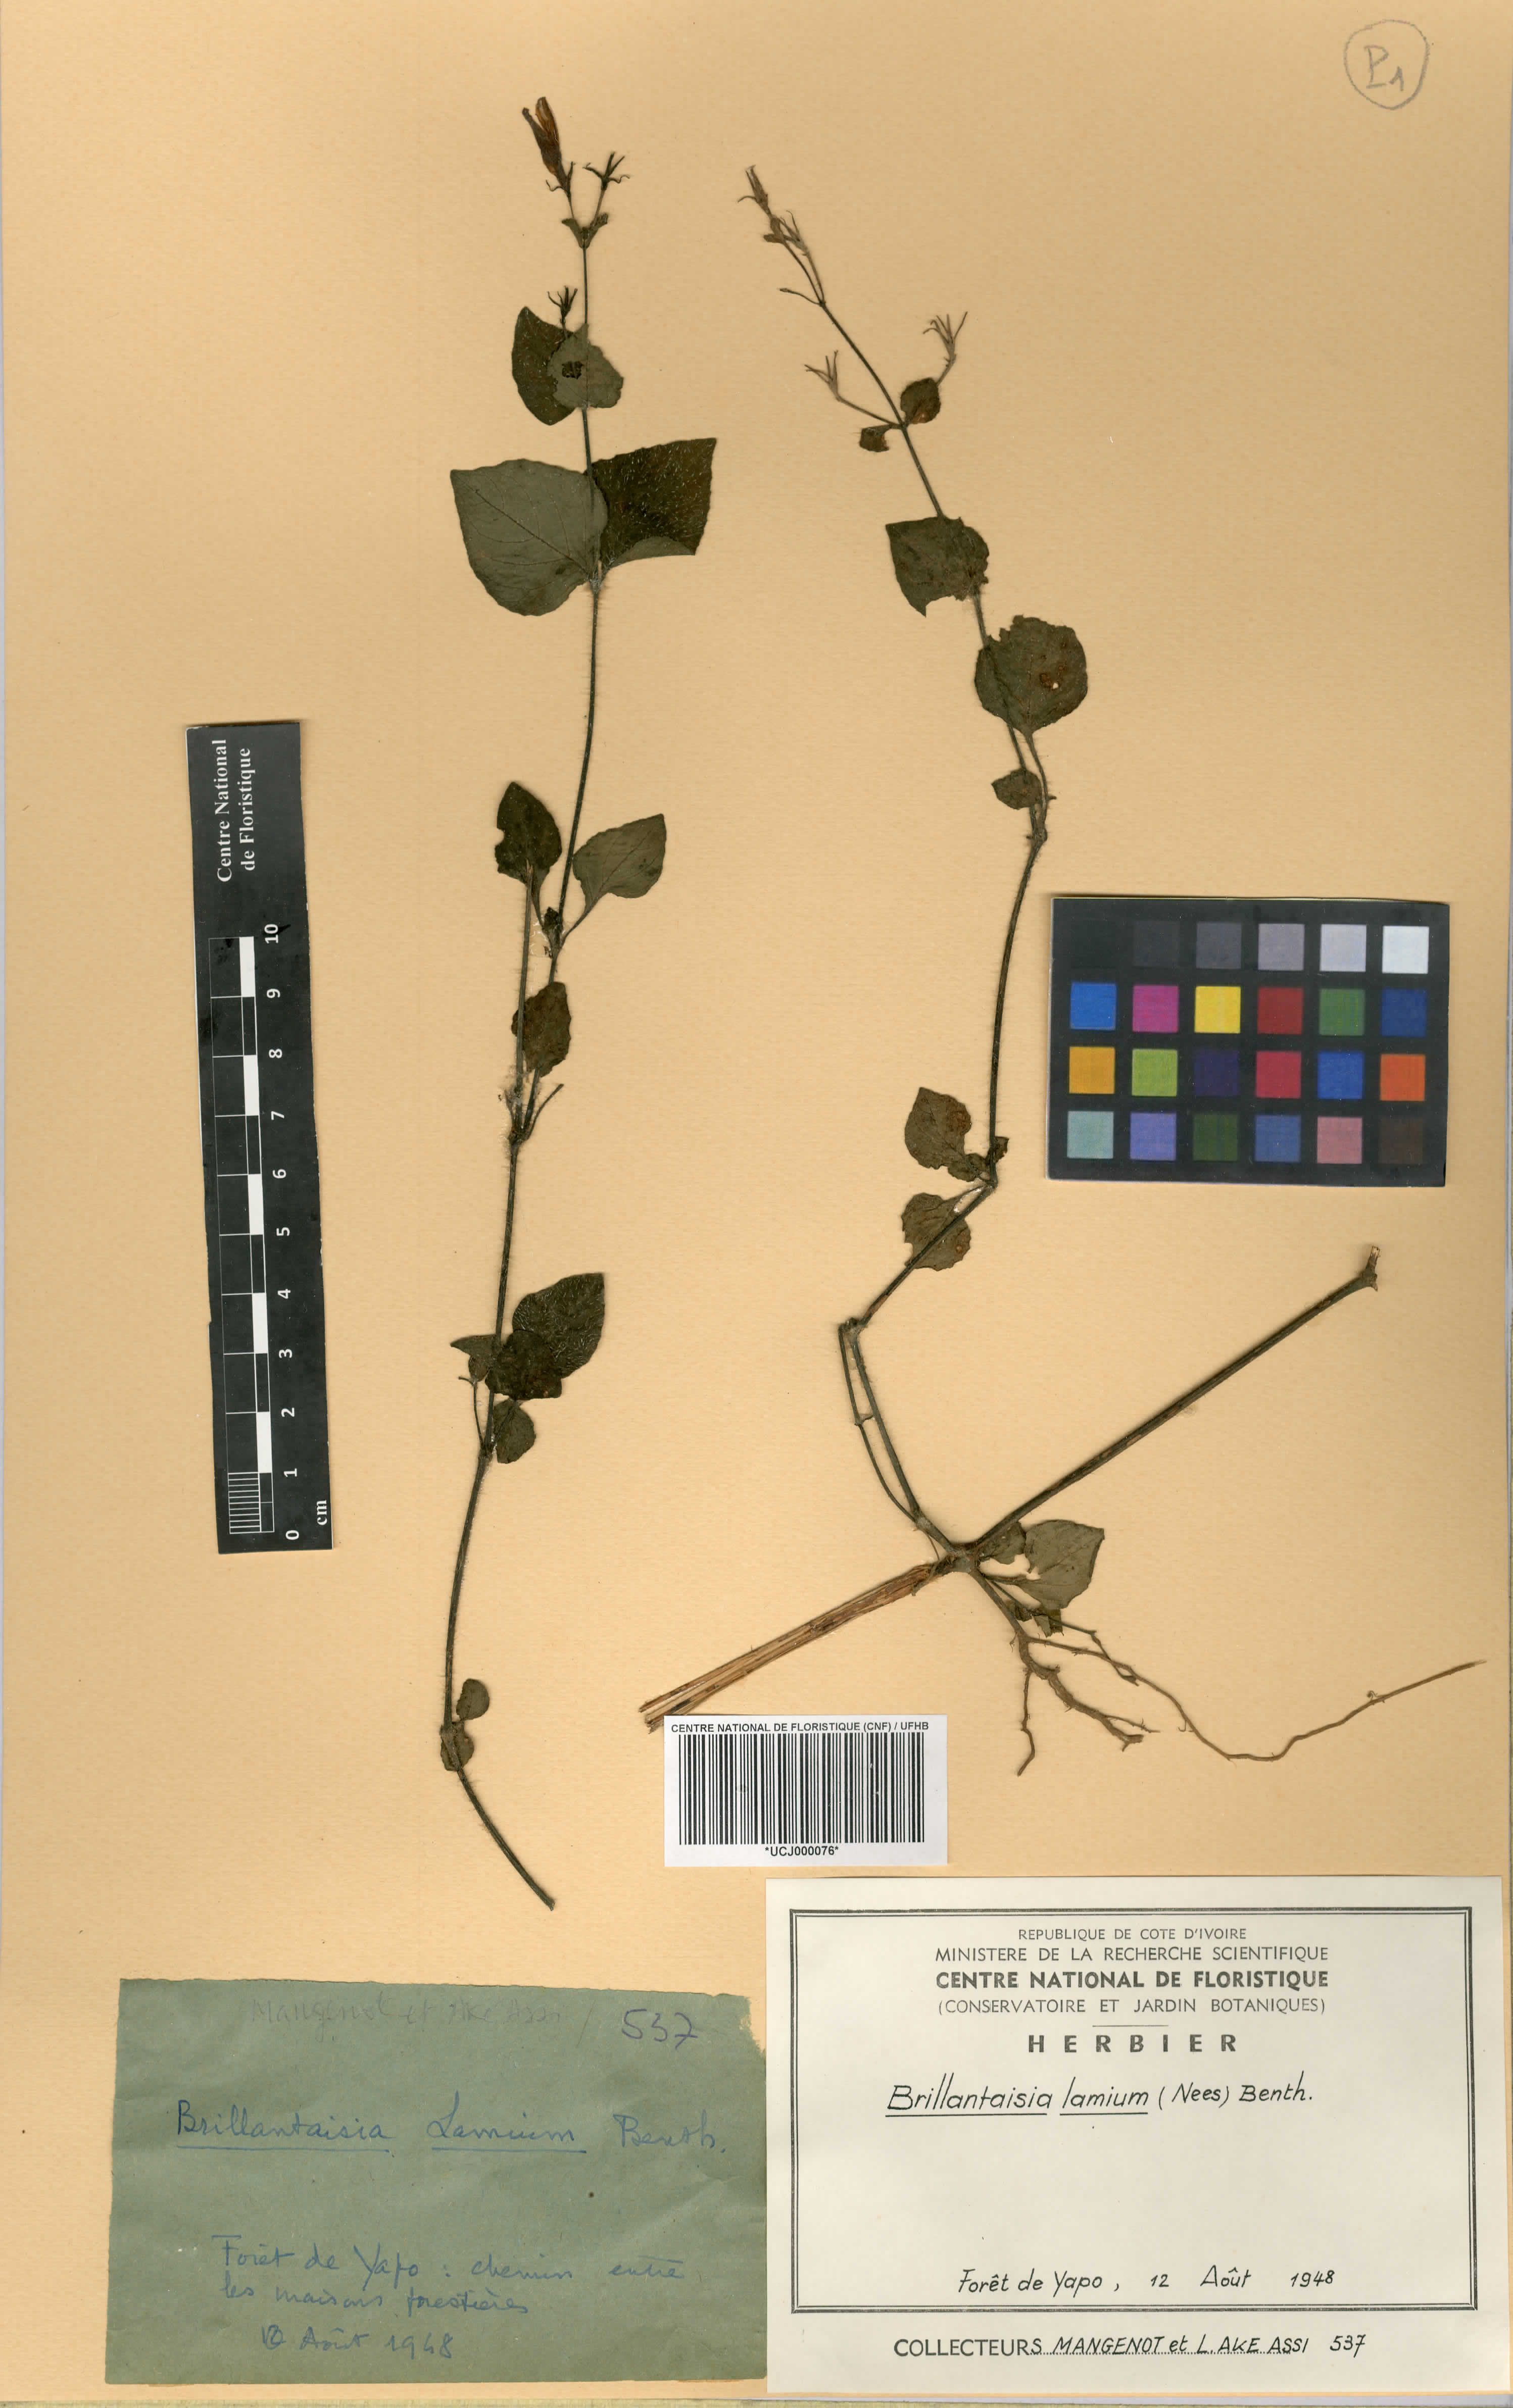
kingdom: Plantae
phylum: Tracheophyta
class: Magnoliopsida
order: Lamiales
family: Acanthaceae
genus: Brillantaisia
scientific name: Brillantaisia lamium
